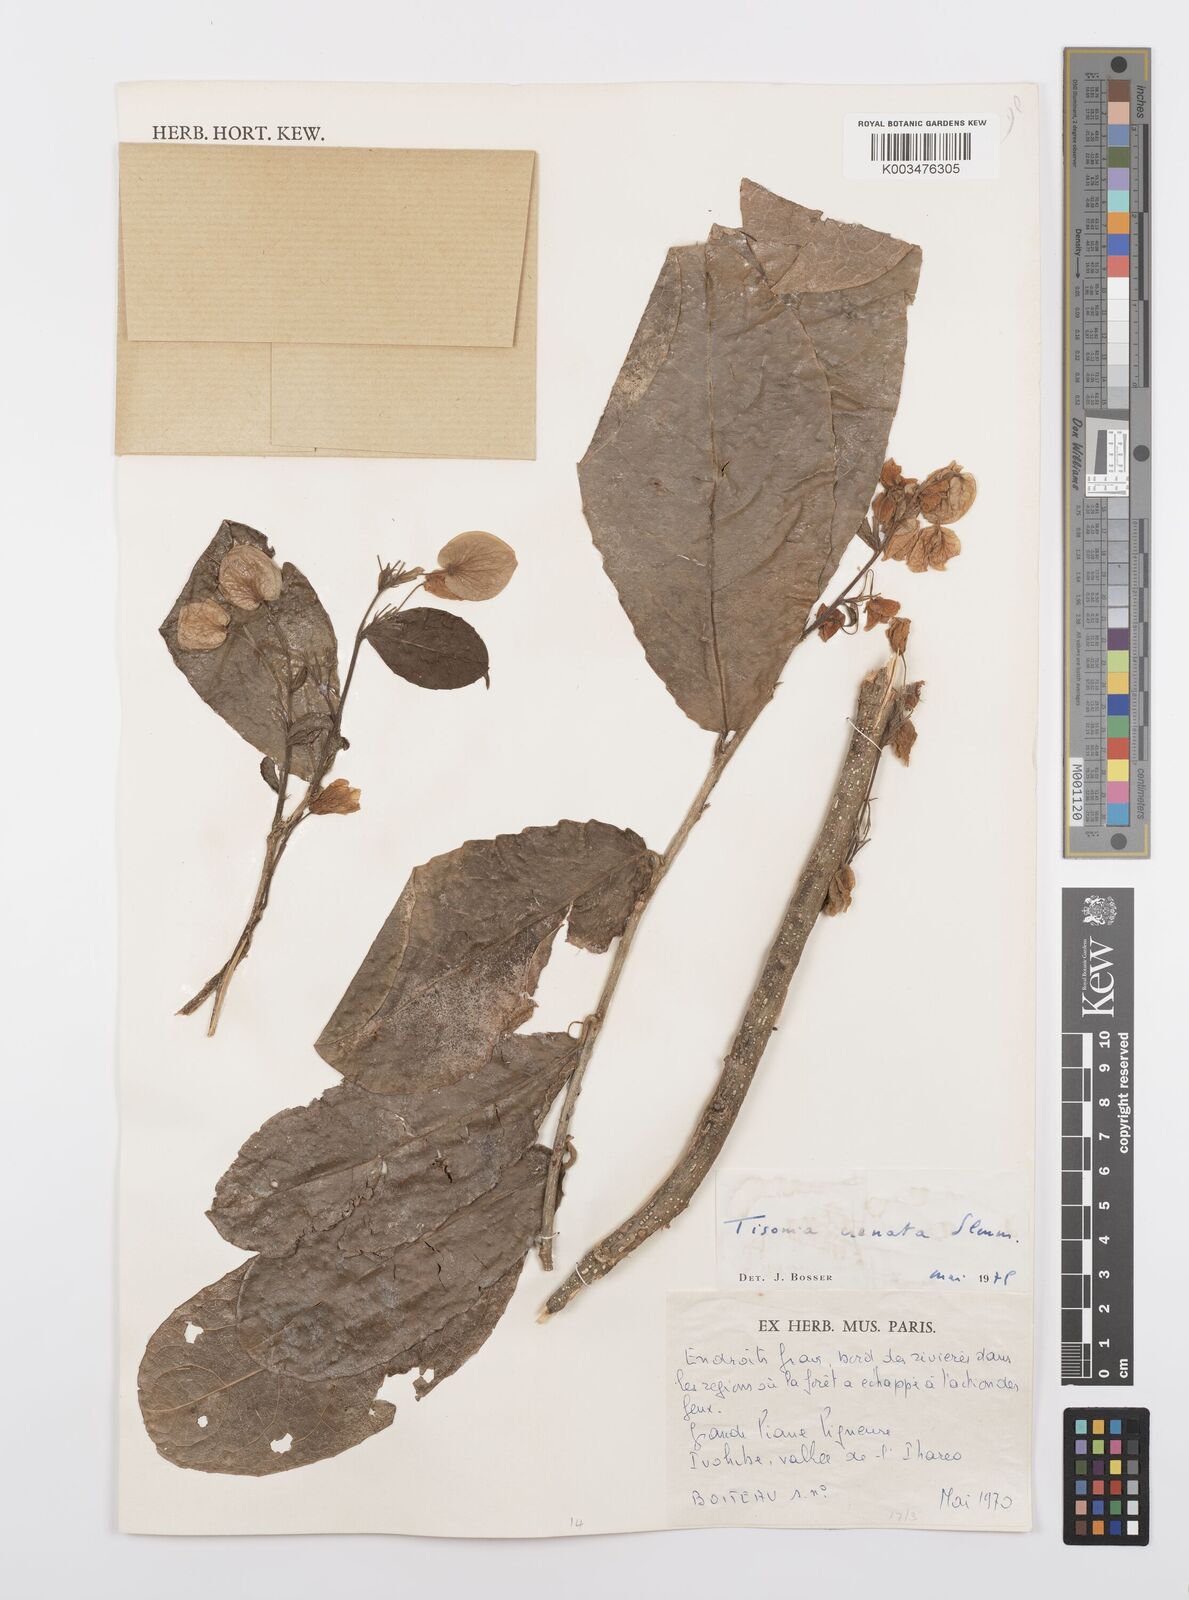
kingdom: Plantae
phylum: Tracheophyta
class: Magnoliopsida
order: Malpighiales
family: Salicaceae
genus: Tisonia
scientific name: Tisonia baronii
